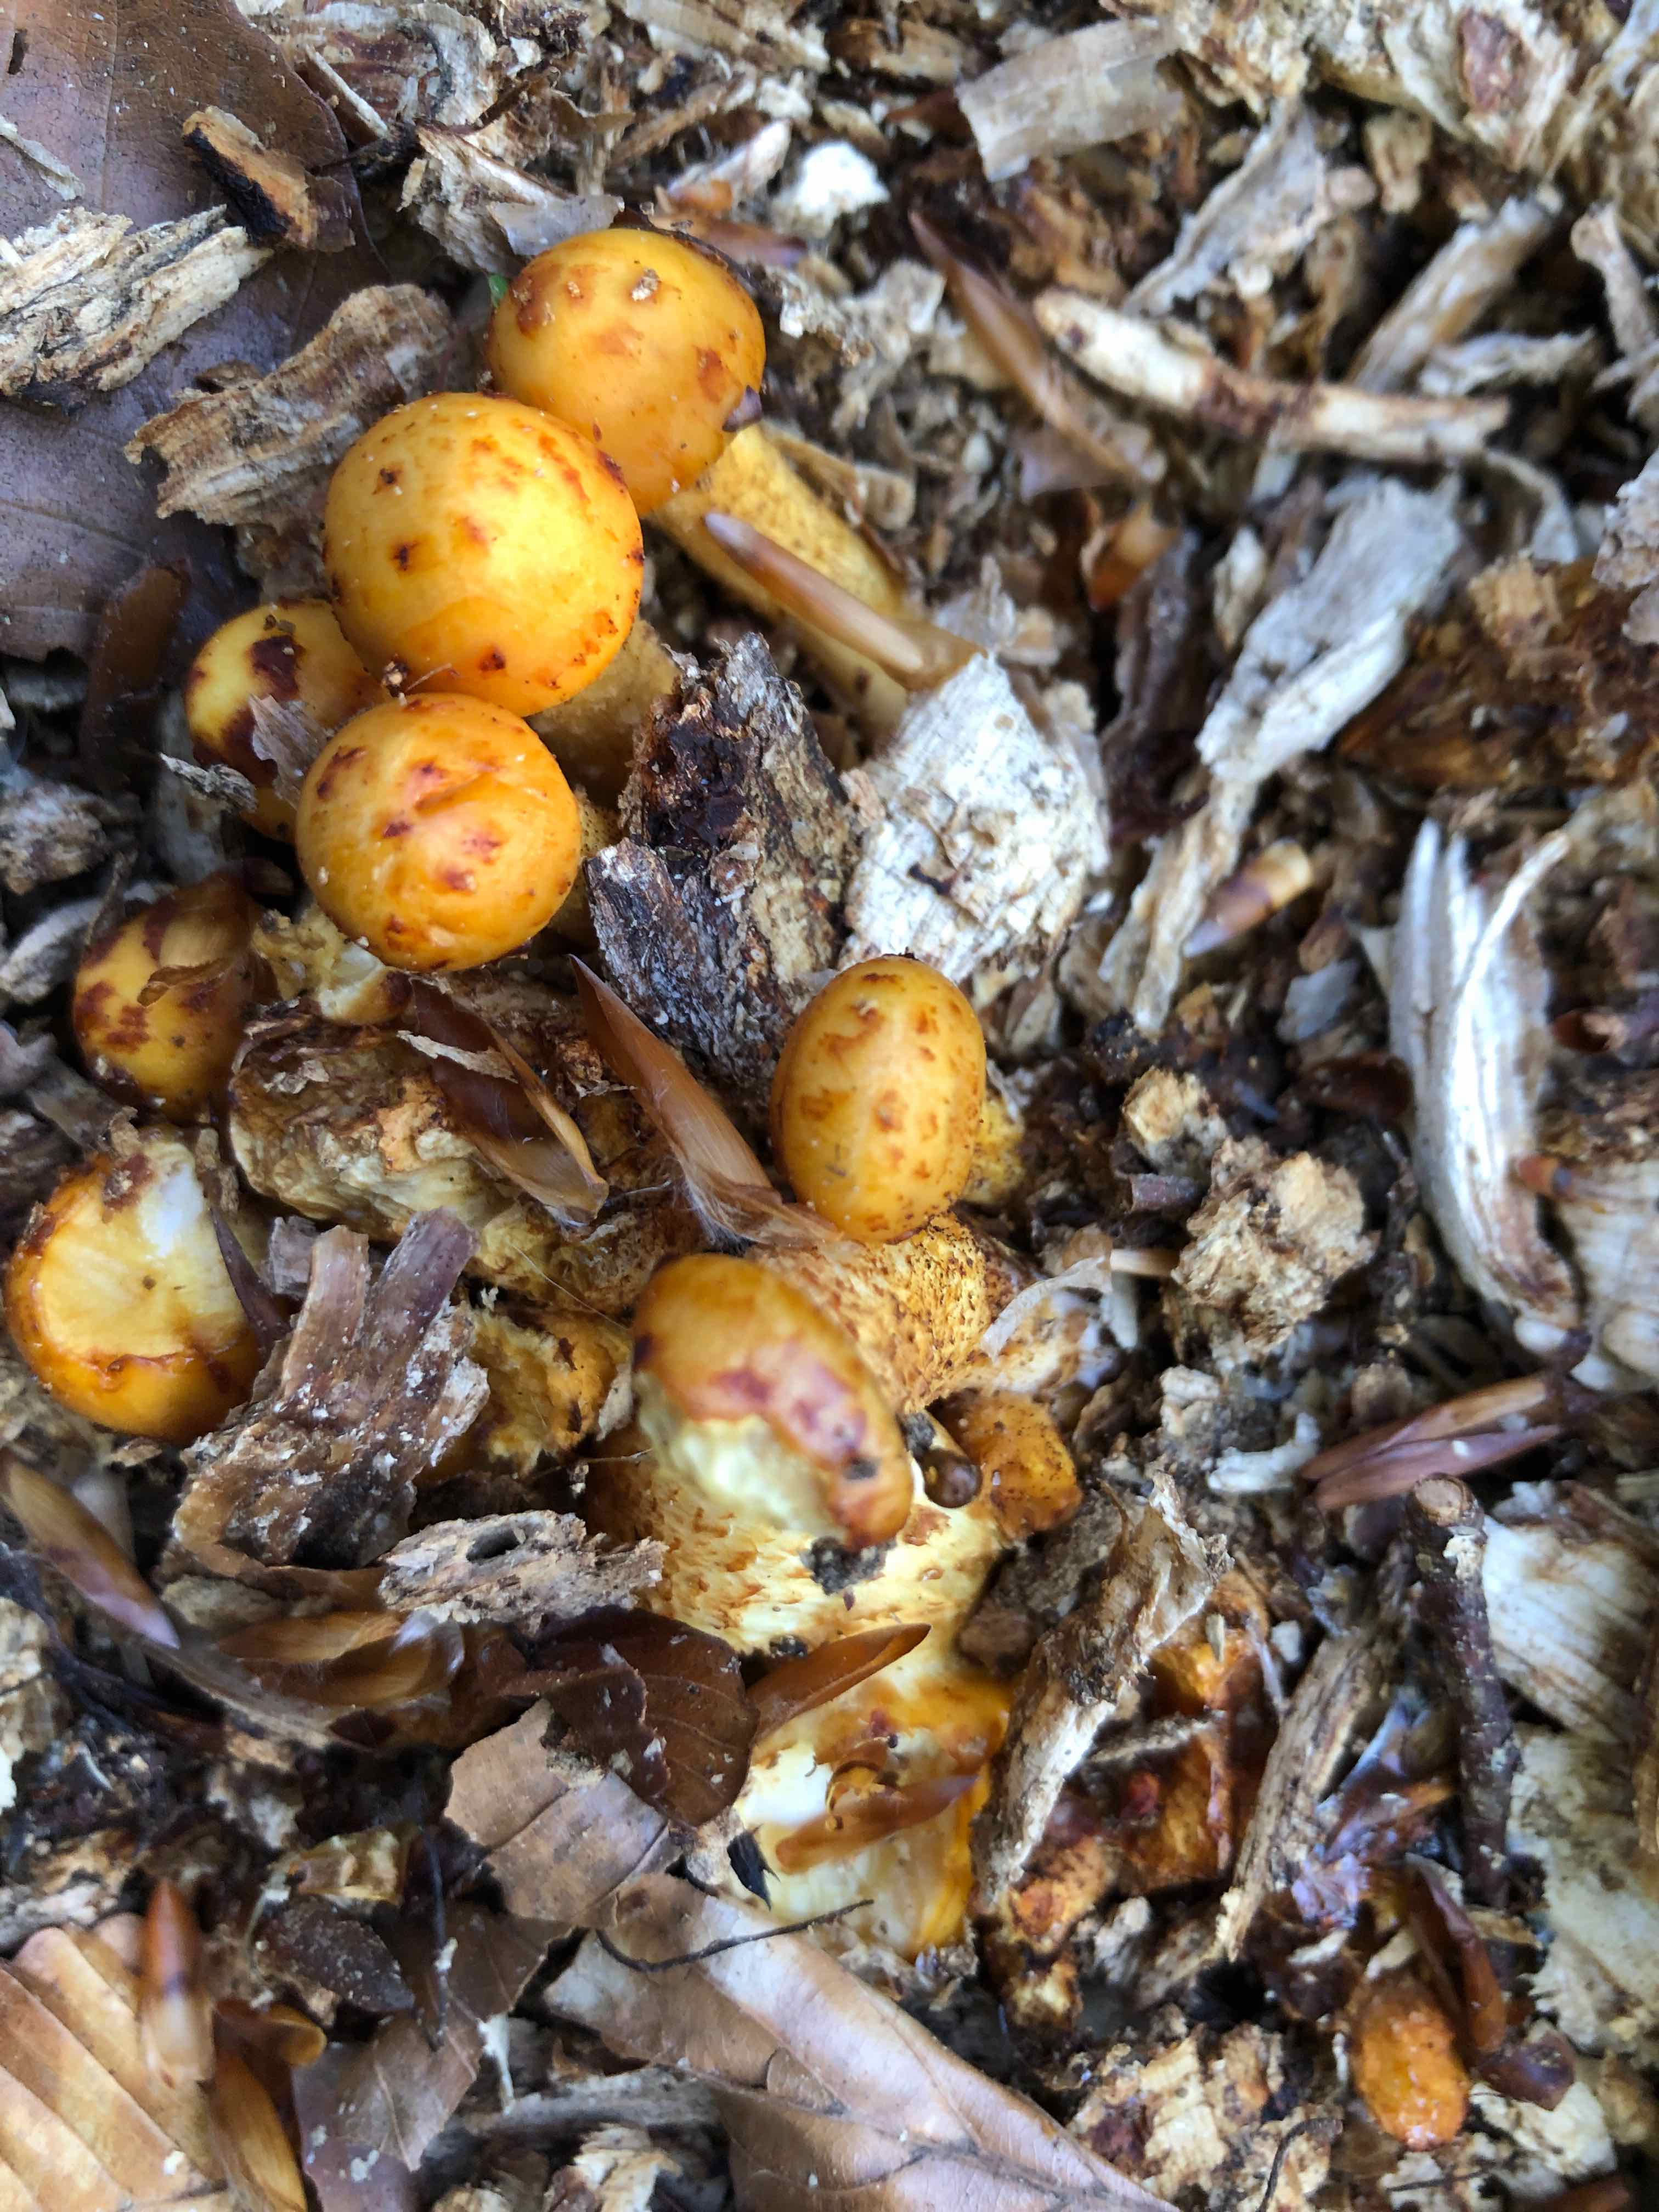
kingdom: Fungi
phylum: Basidiomycota
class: Agaricomycetes
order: Agaricales
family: Strophariaceae
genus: Pholiota
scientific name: Pholiota adiposa
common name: højtsiddende skælhat
